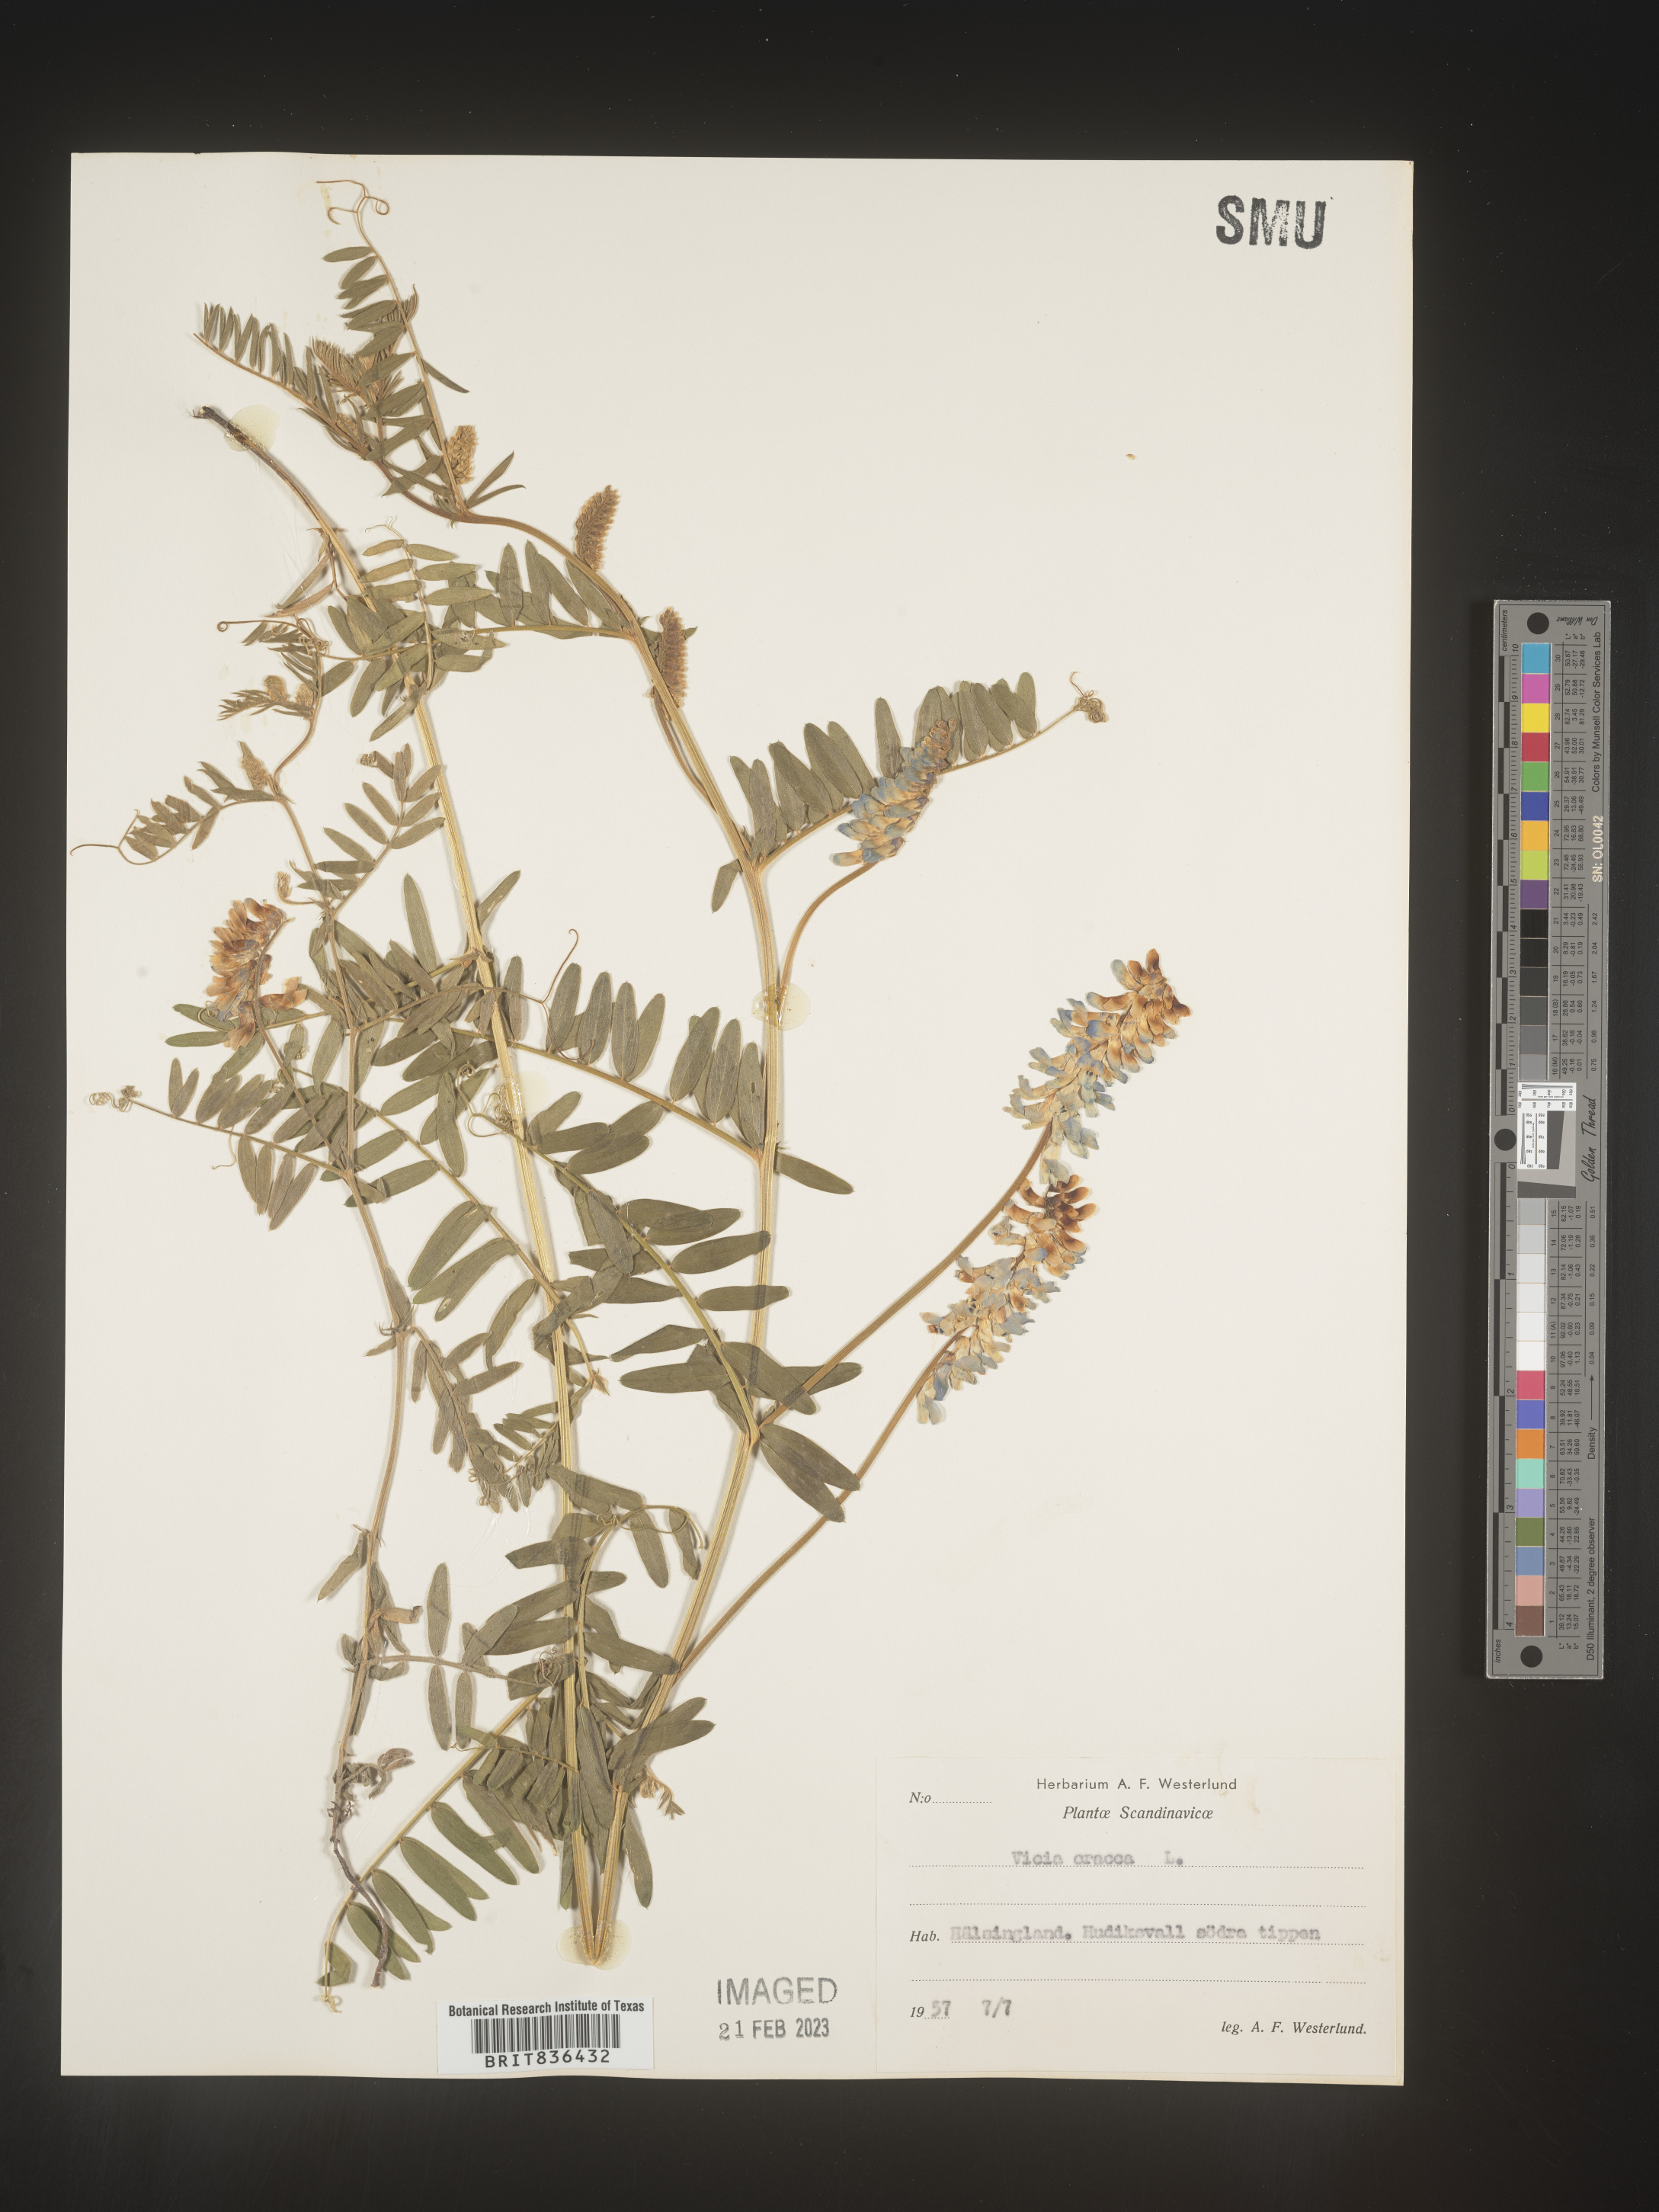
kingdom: Plantae
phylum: Tracheophyta
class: Magnoliopsida
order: Fabales
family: Fabaceae
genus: Vicia
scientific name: Vicia
